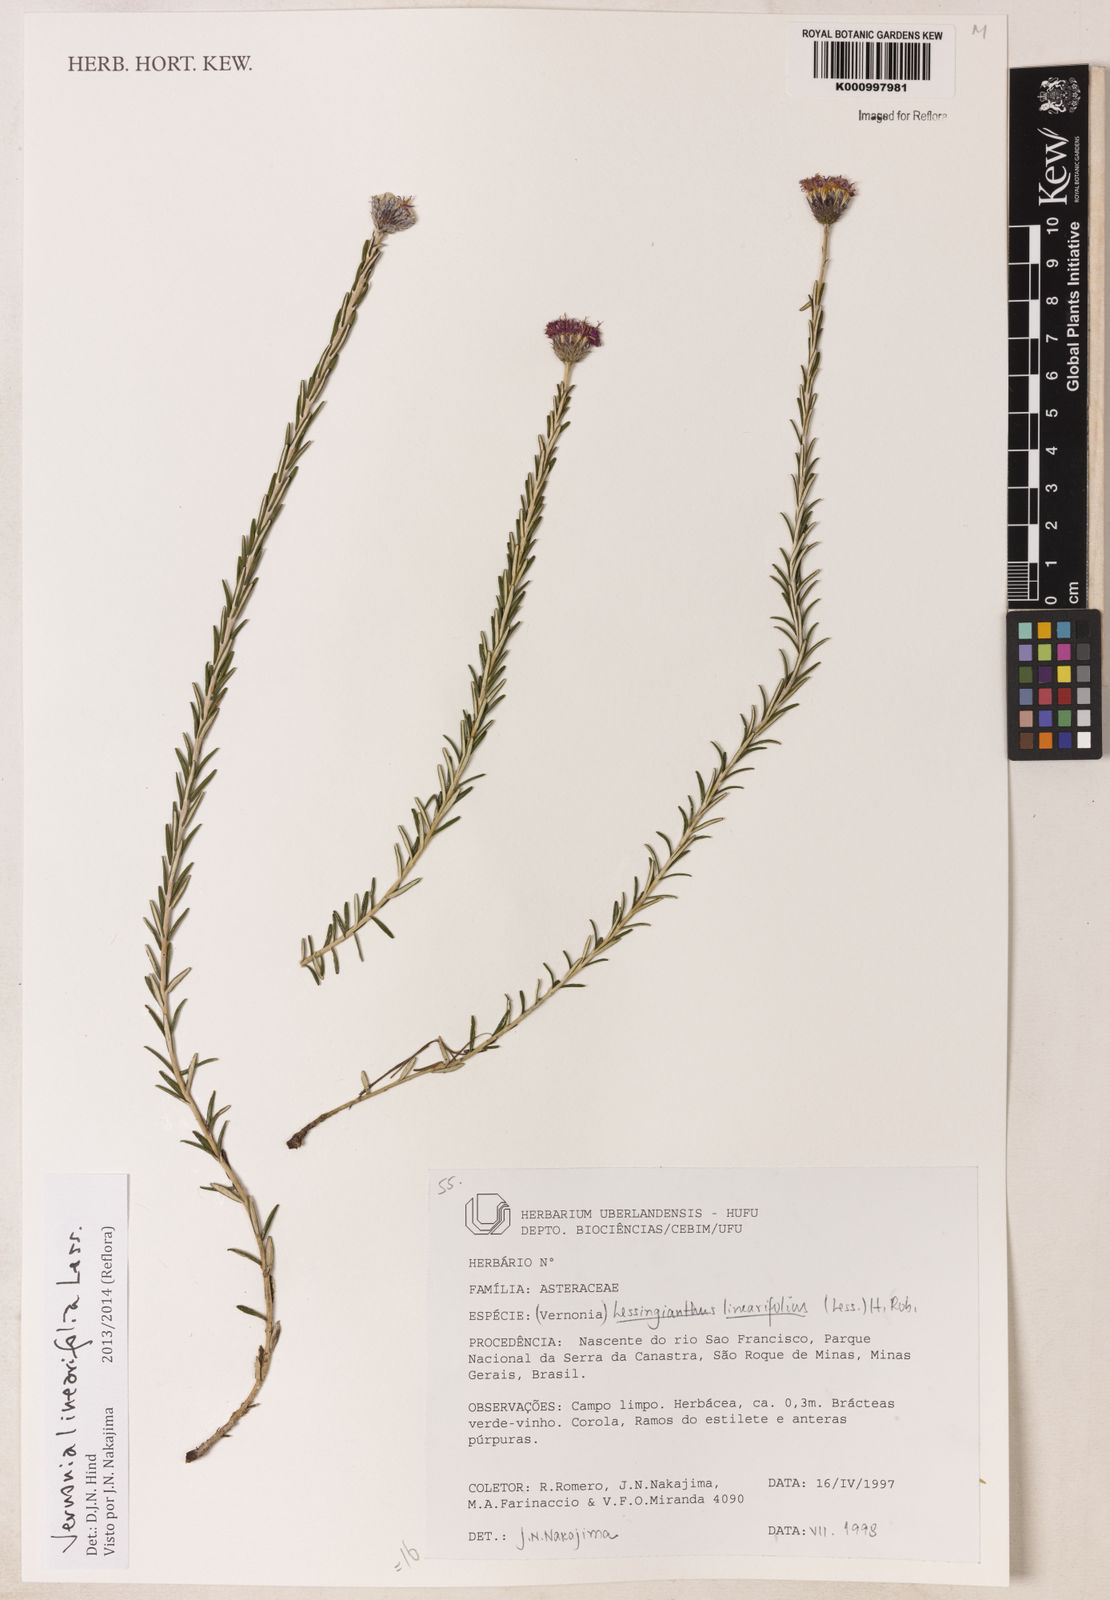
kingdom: Plantae
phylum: Tracheophyta
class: Magnoliopsida
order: Asterales
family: Asteraceae
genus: Lessingianthus
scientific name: Lessingianthus rosmarinifolius
